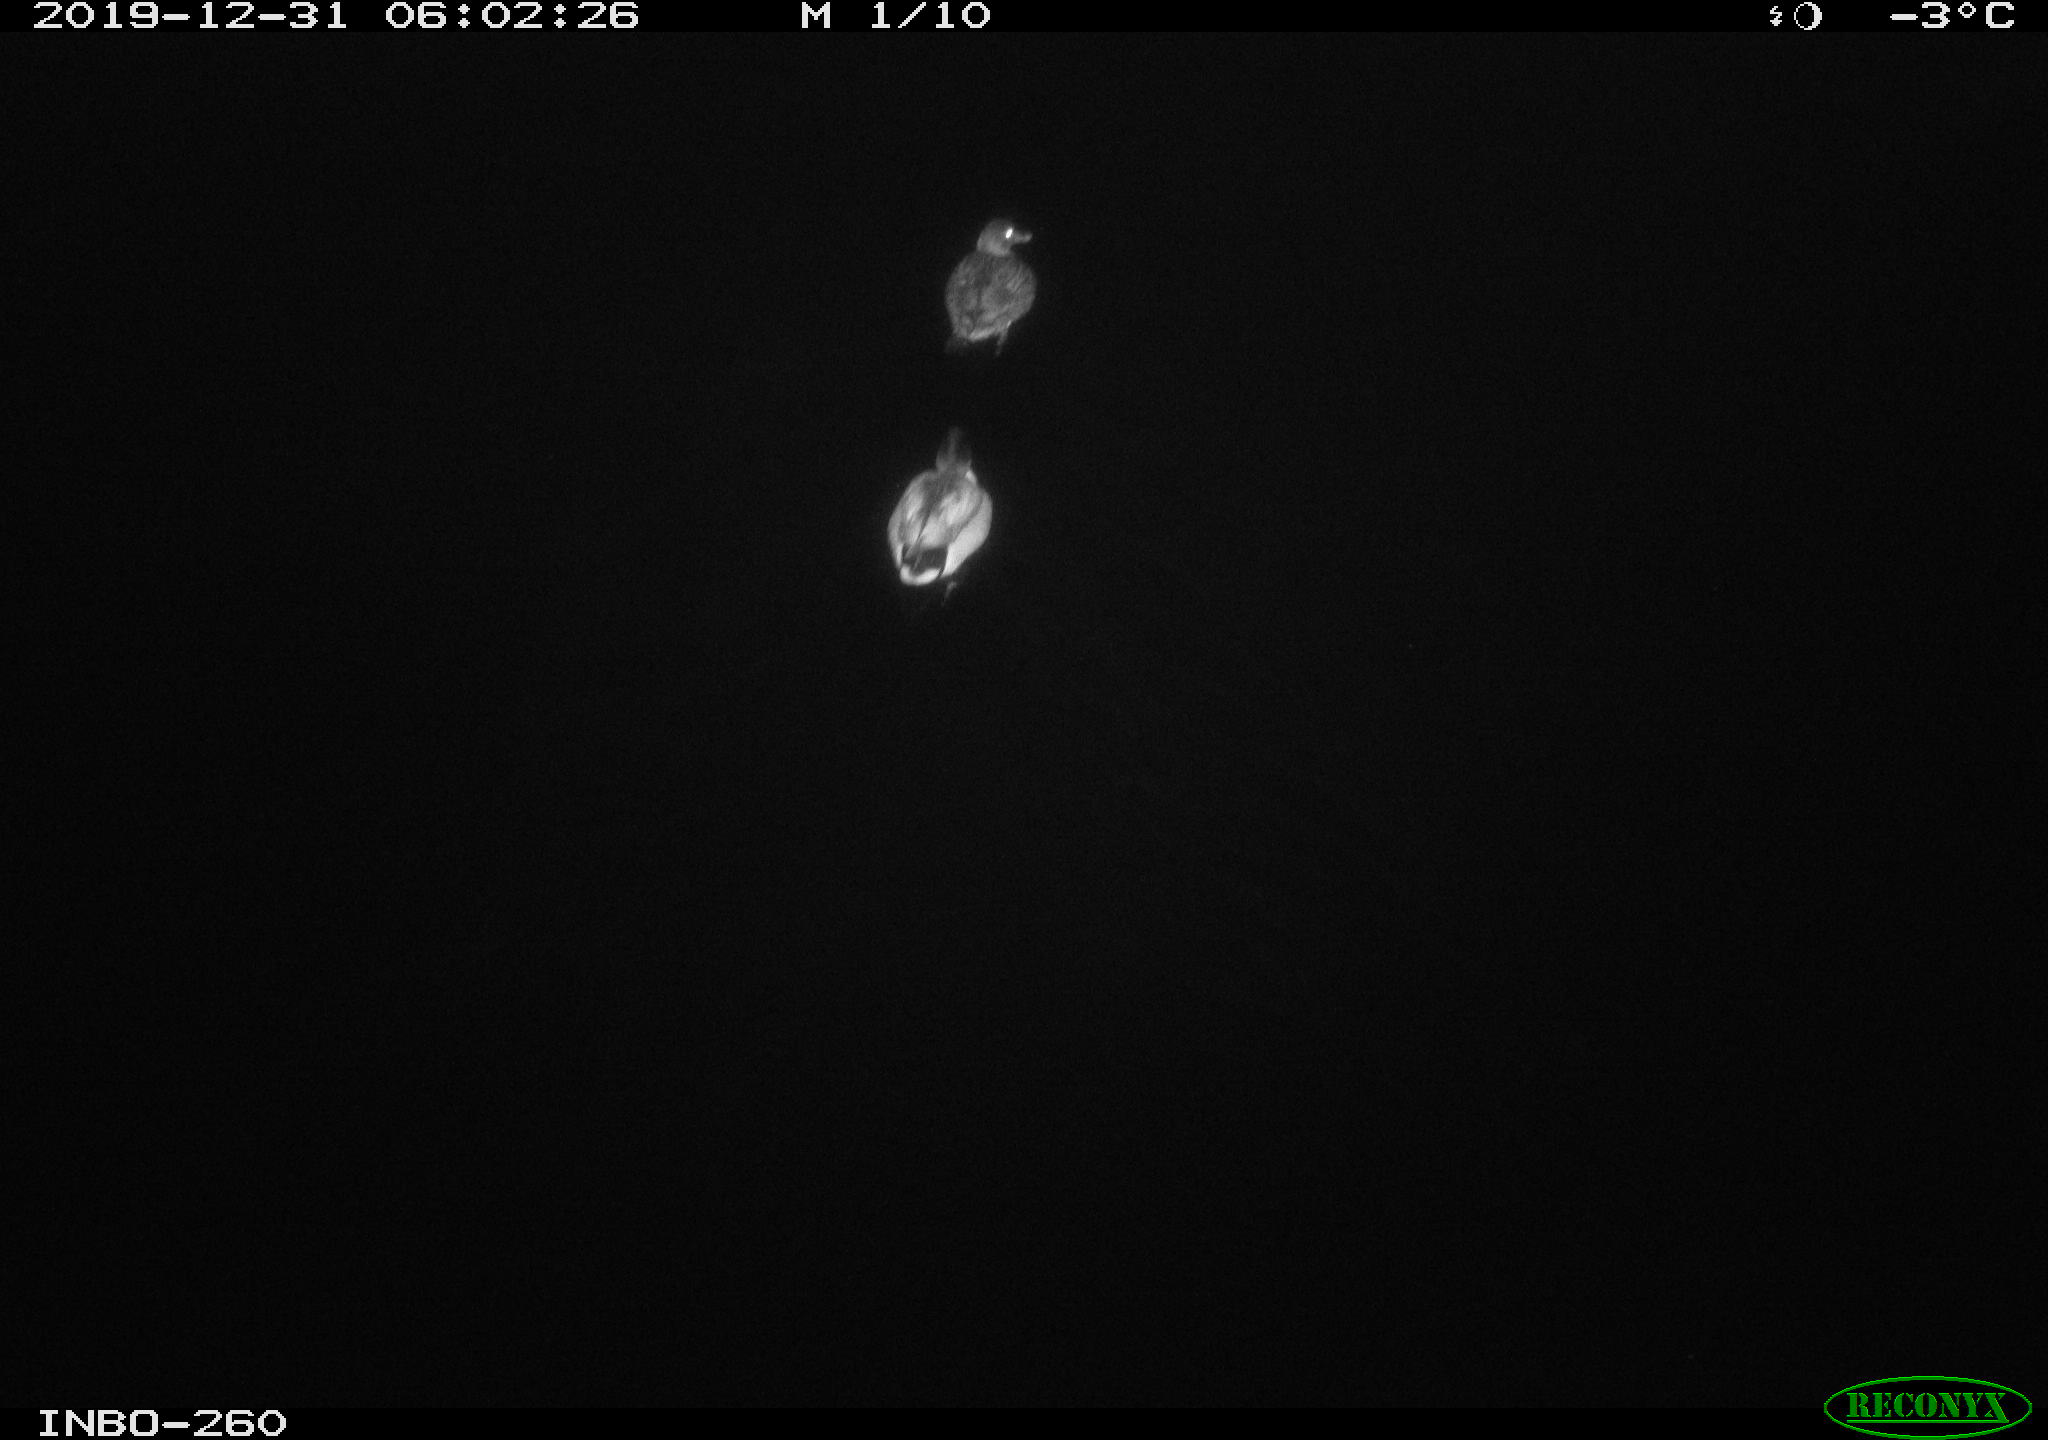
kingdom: Animalia
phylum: Chordata
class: Aves
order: Anseriformes
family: Anatidae
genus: Anas
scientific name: Anas platyrhynchos
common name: Mallard
